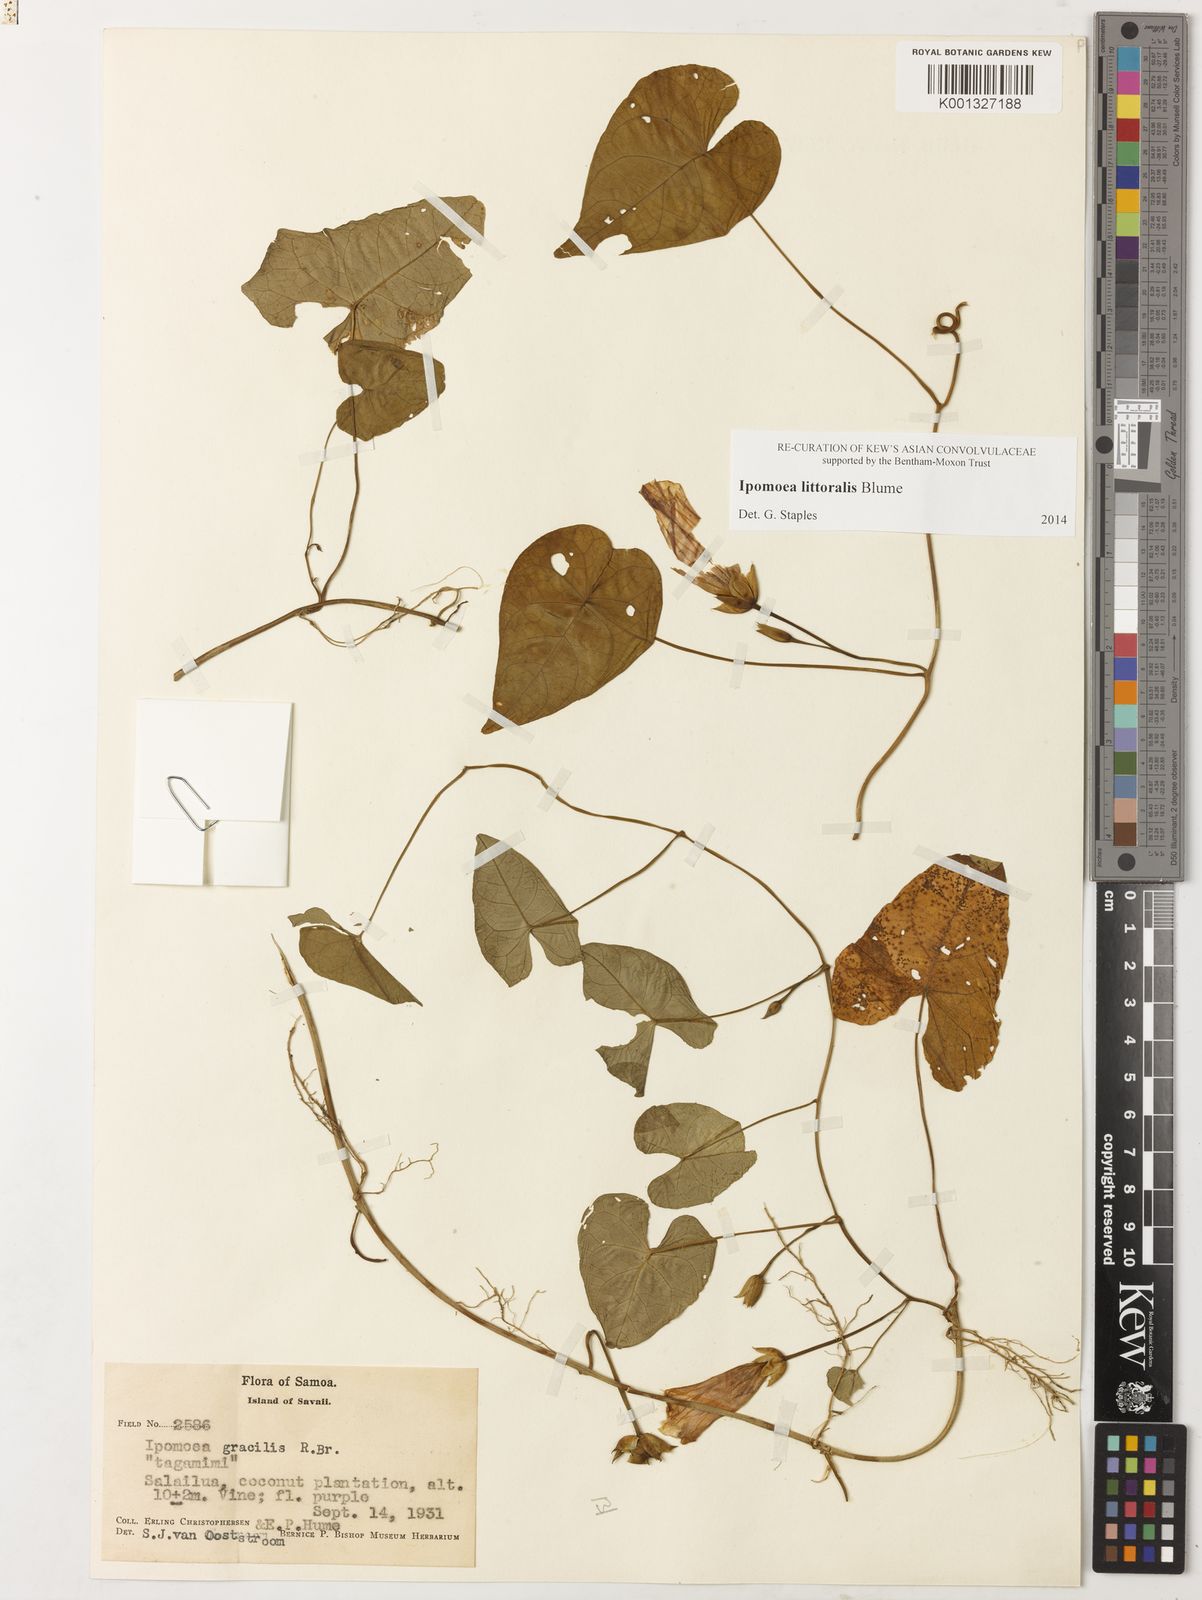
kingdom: Plantae
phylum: Tracheophyta
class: Magnoliopsida
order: Solanales
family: Convolvulaceae
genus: Ipomoea
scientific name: Ipomoea littoralis
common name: Coastal morning glory
